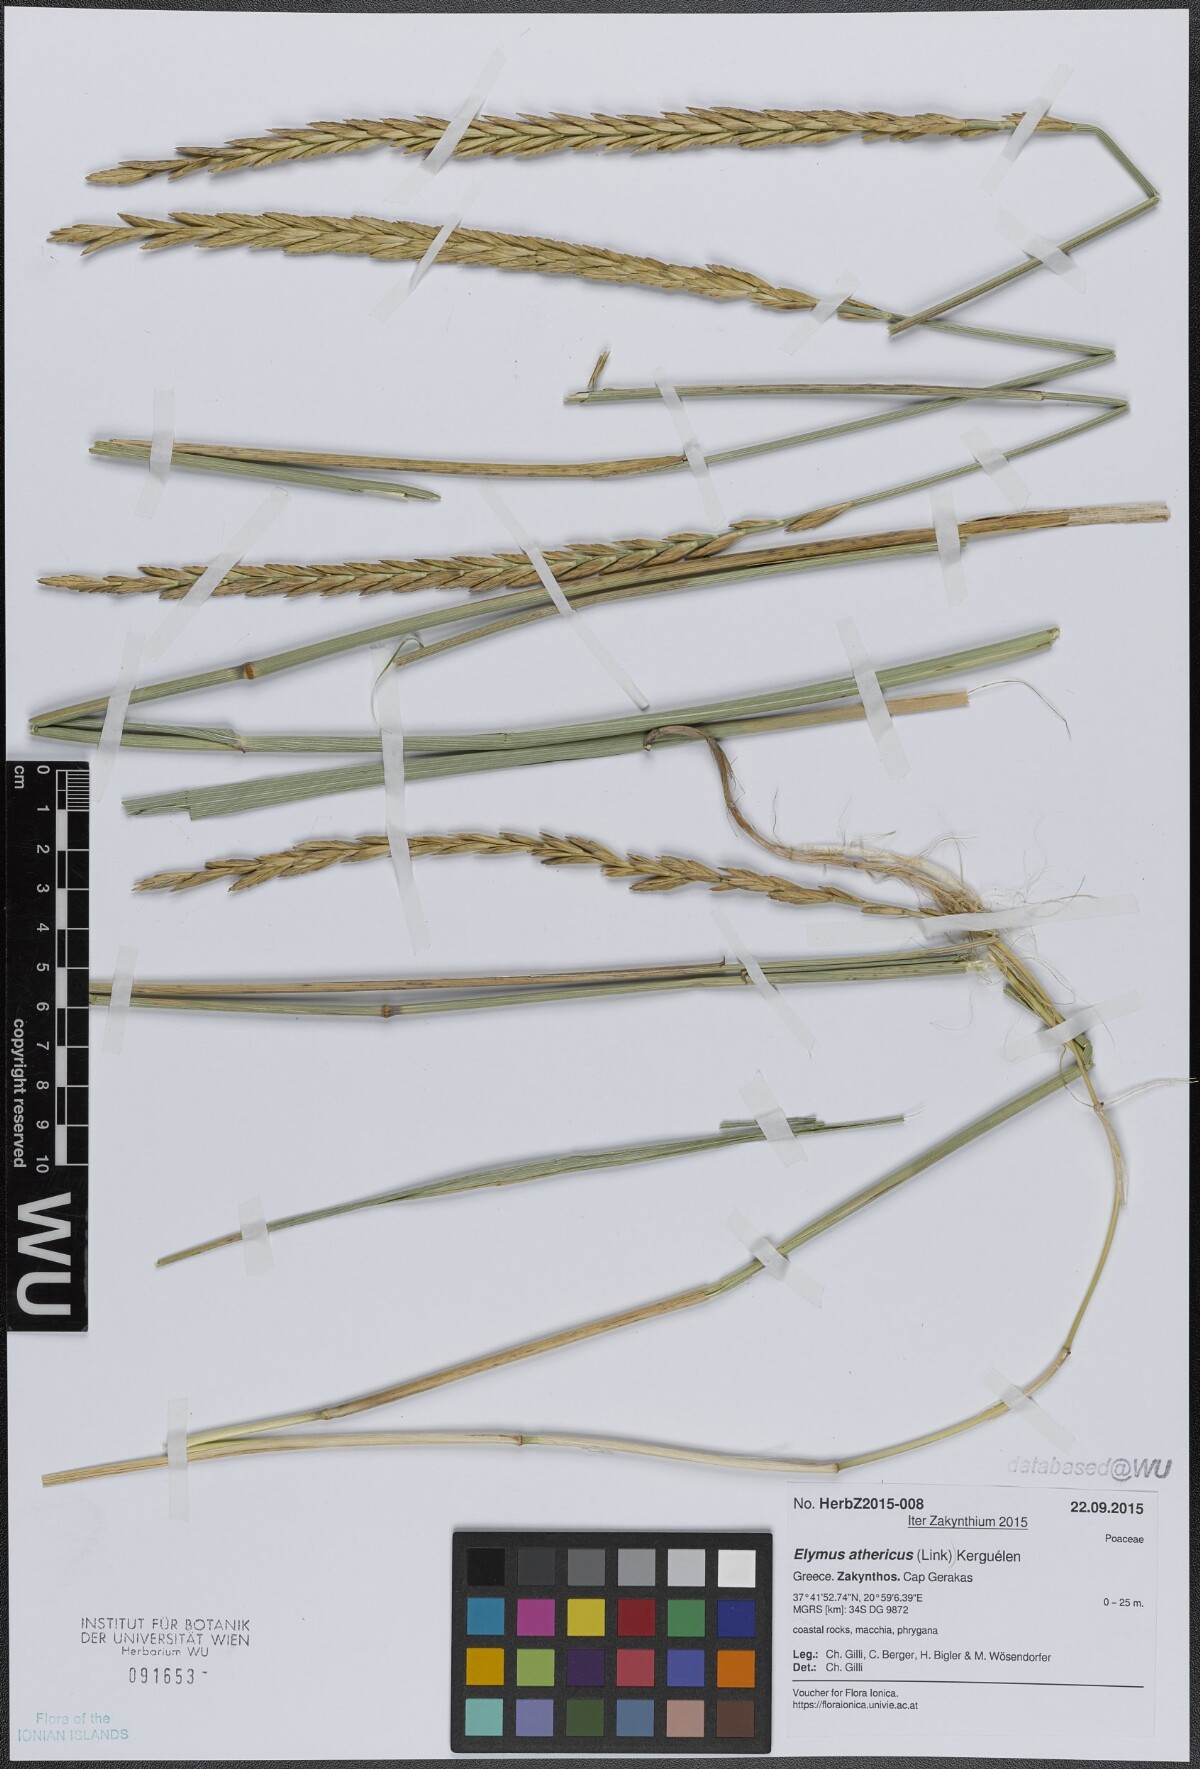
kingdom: Plantae
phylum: Tracheophyta
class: Liliopsida
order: Poales
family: Poaceae
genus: Elymus
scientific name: Elymus athericus
